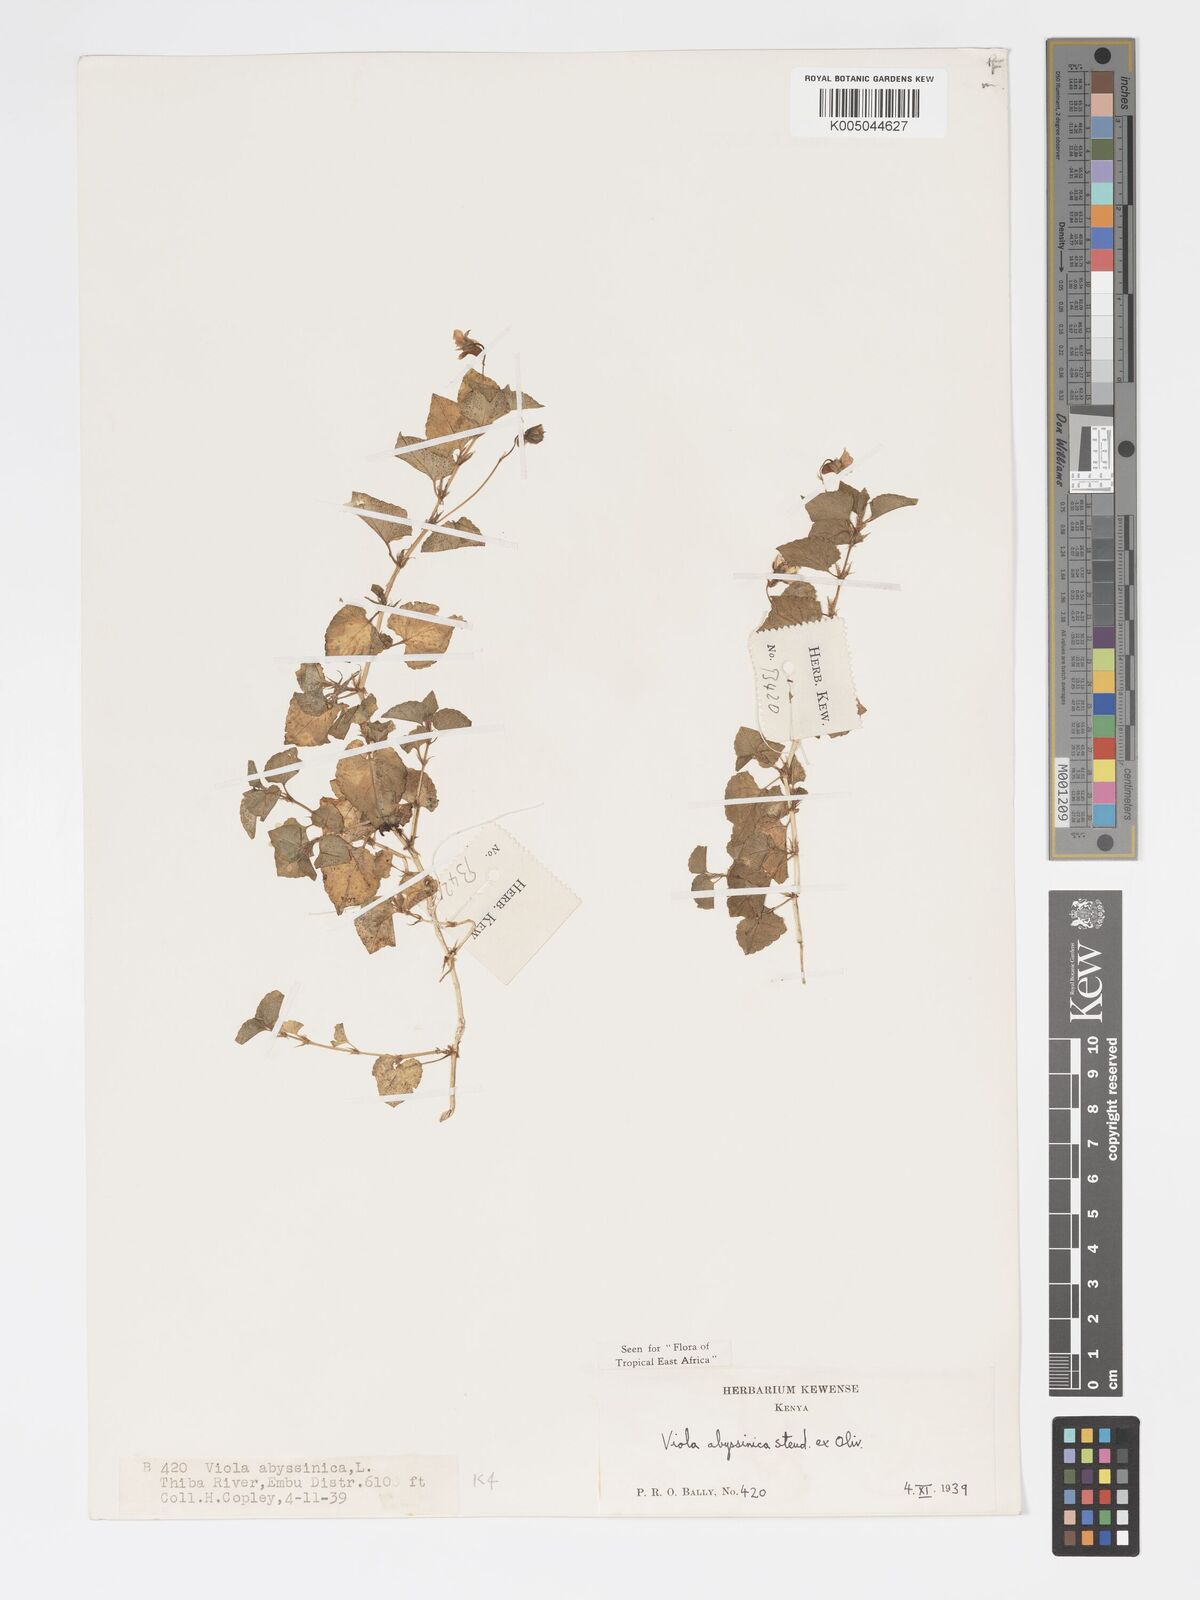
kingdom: Plantae
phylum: Tracheophyta
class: Magnoliopsida
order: Malpighiales
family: Violaceae
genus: Viola
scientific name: Viola abyssinica
